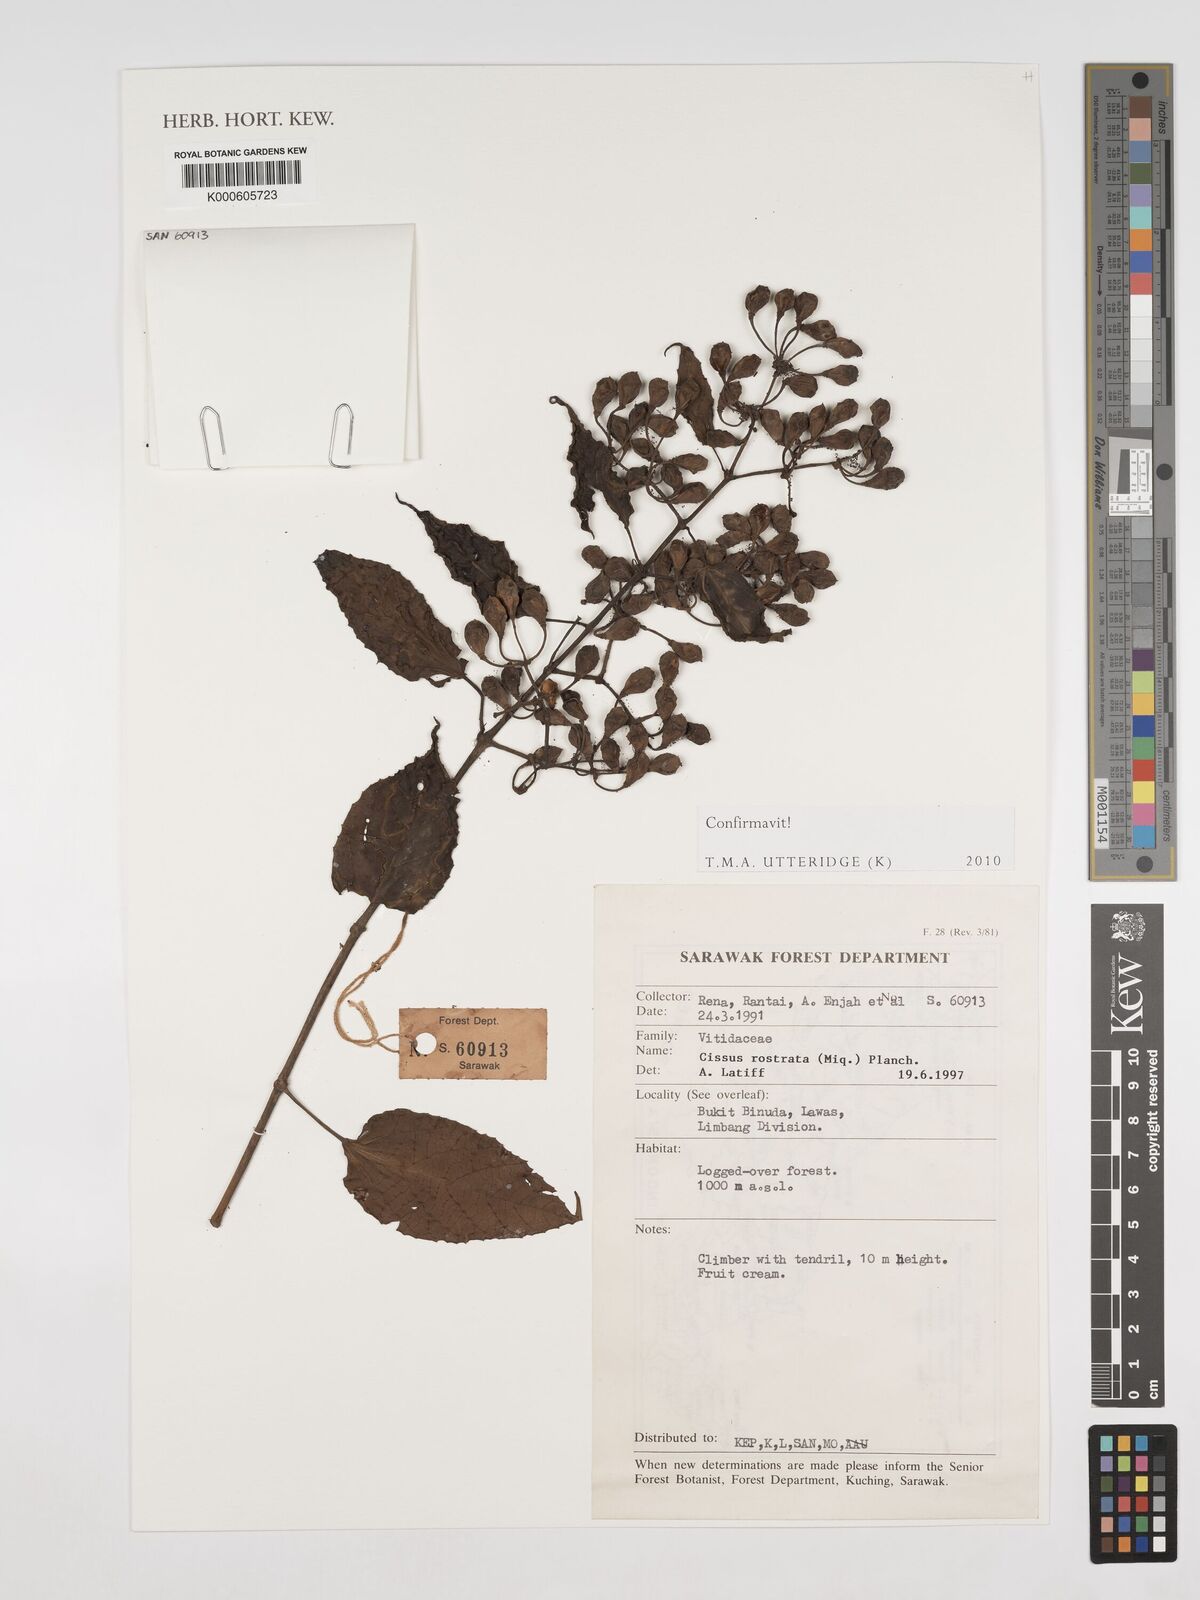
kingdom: Plantae
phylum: Tracheophyta
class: Magnoliopsida
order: Vitales
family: Vitaceae
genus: Cissus
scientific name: Cissus rostrata
